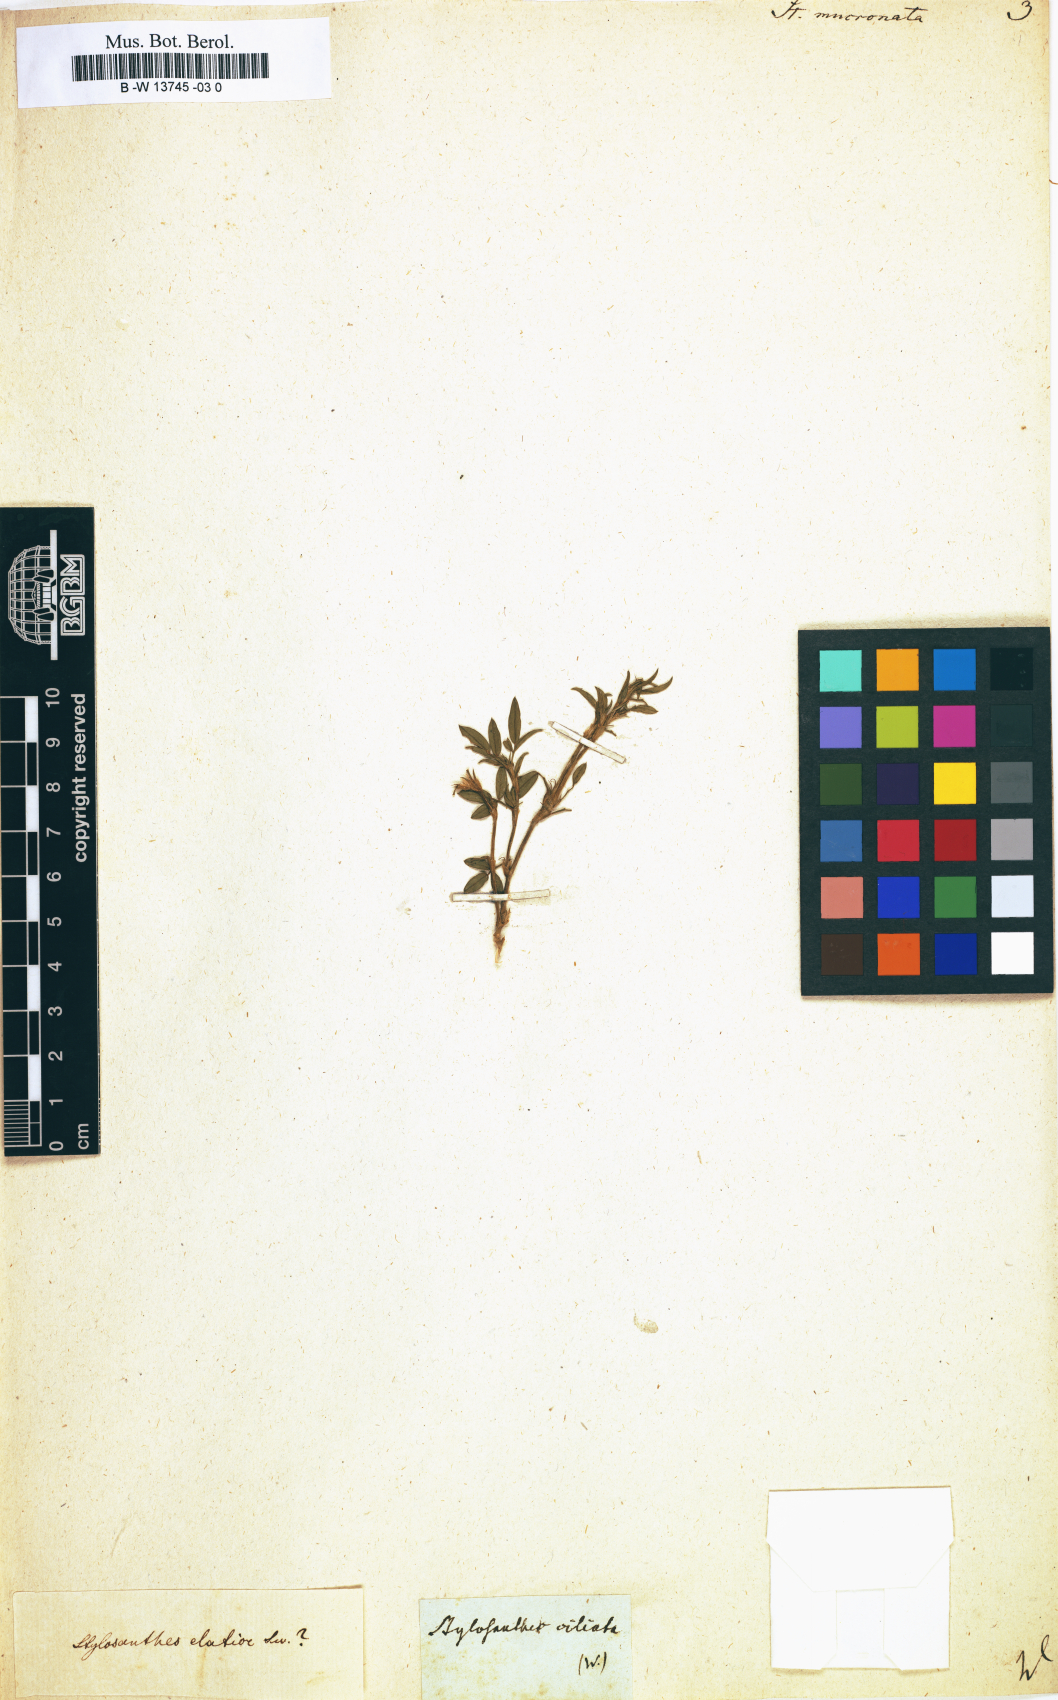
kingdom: Plantae
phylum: Tracheophyta
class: Magnoliopsida
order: Fabales
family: Fabaceae
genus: Stylosanthes
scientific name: Stylosanthes fruticosa
